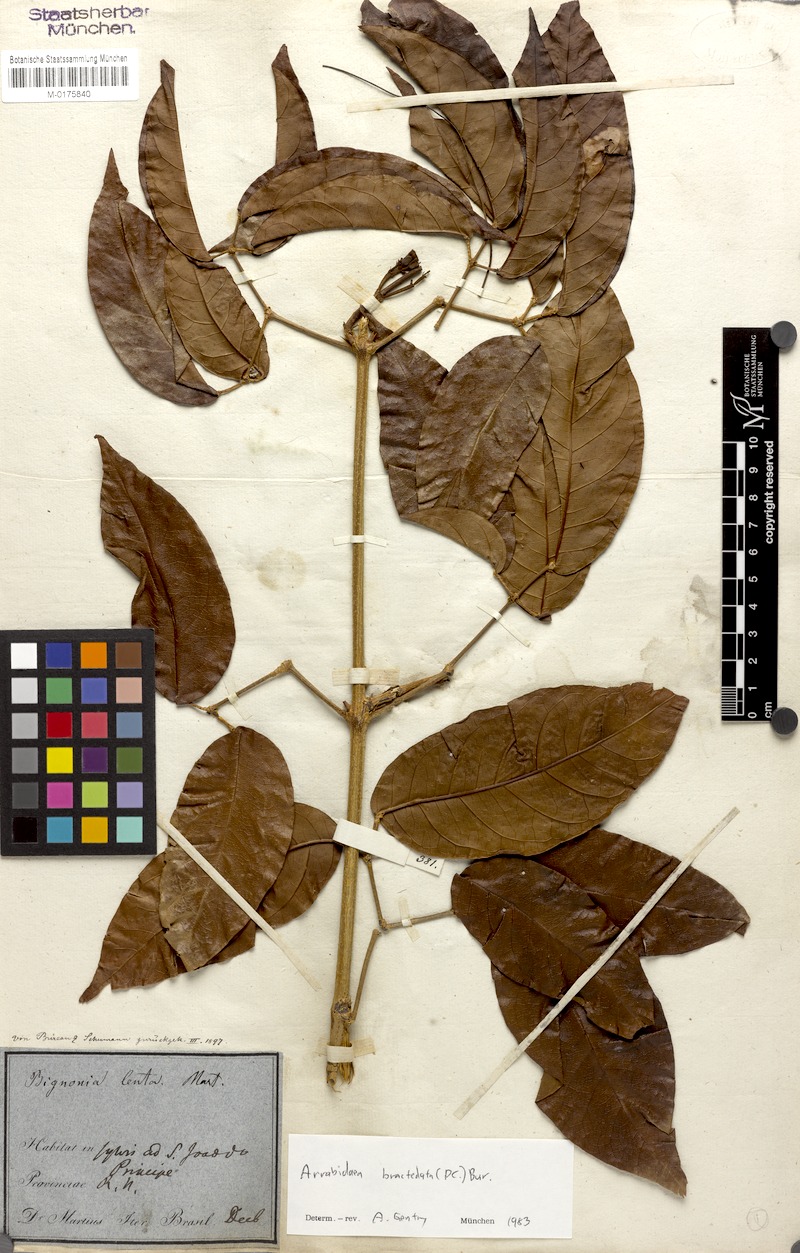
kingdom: Plantae
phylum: Tracheophyta
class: Magnoliopsida
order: Lamiales
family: Bignoniaceae
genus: Tanaecium
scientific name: Tanaecium pyramidatum
